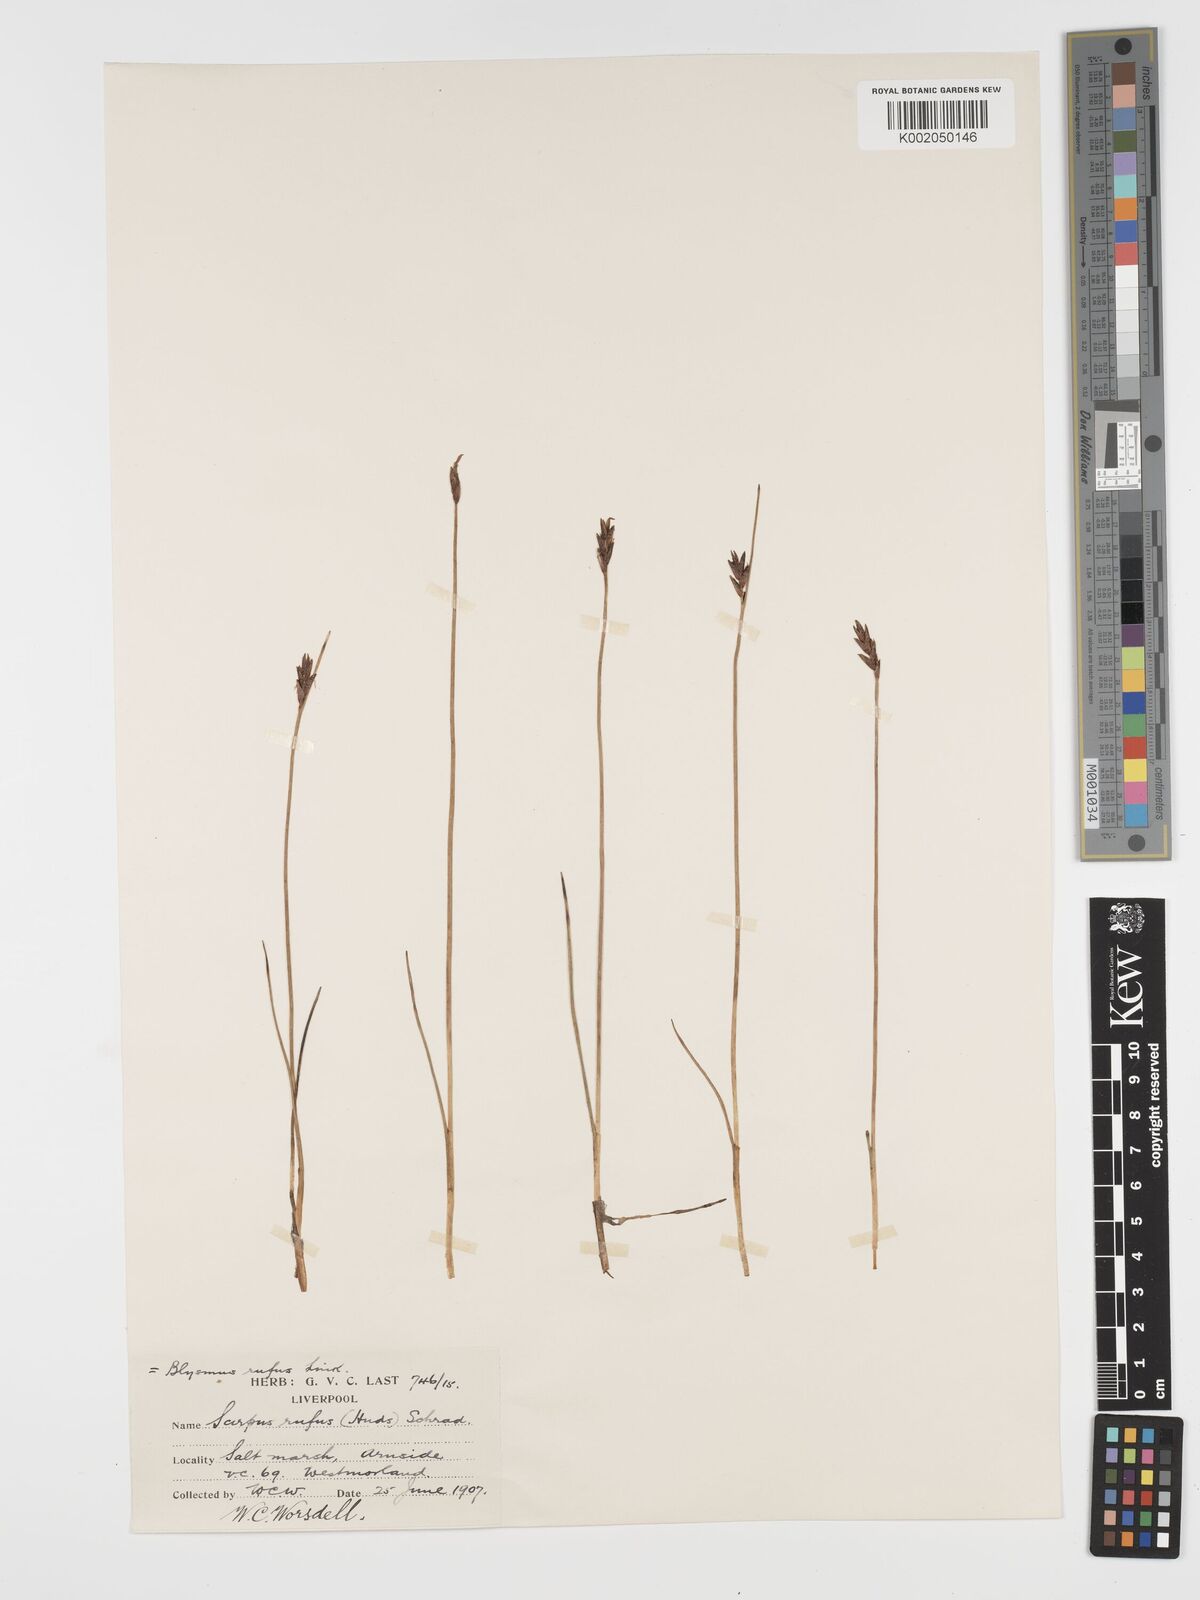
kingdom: Plantae
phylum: Tracheophyta
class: Liliopsida
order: Poales
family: Cyperaceae
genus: Blysmus
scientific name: Blysmus rufus
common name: Saltmarsh flat-sedge
